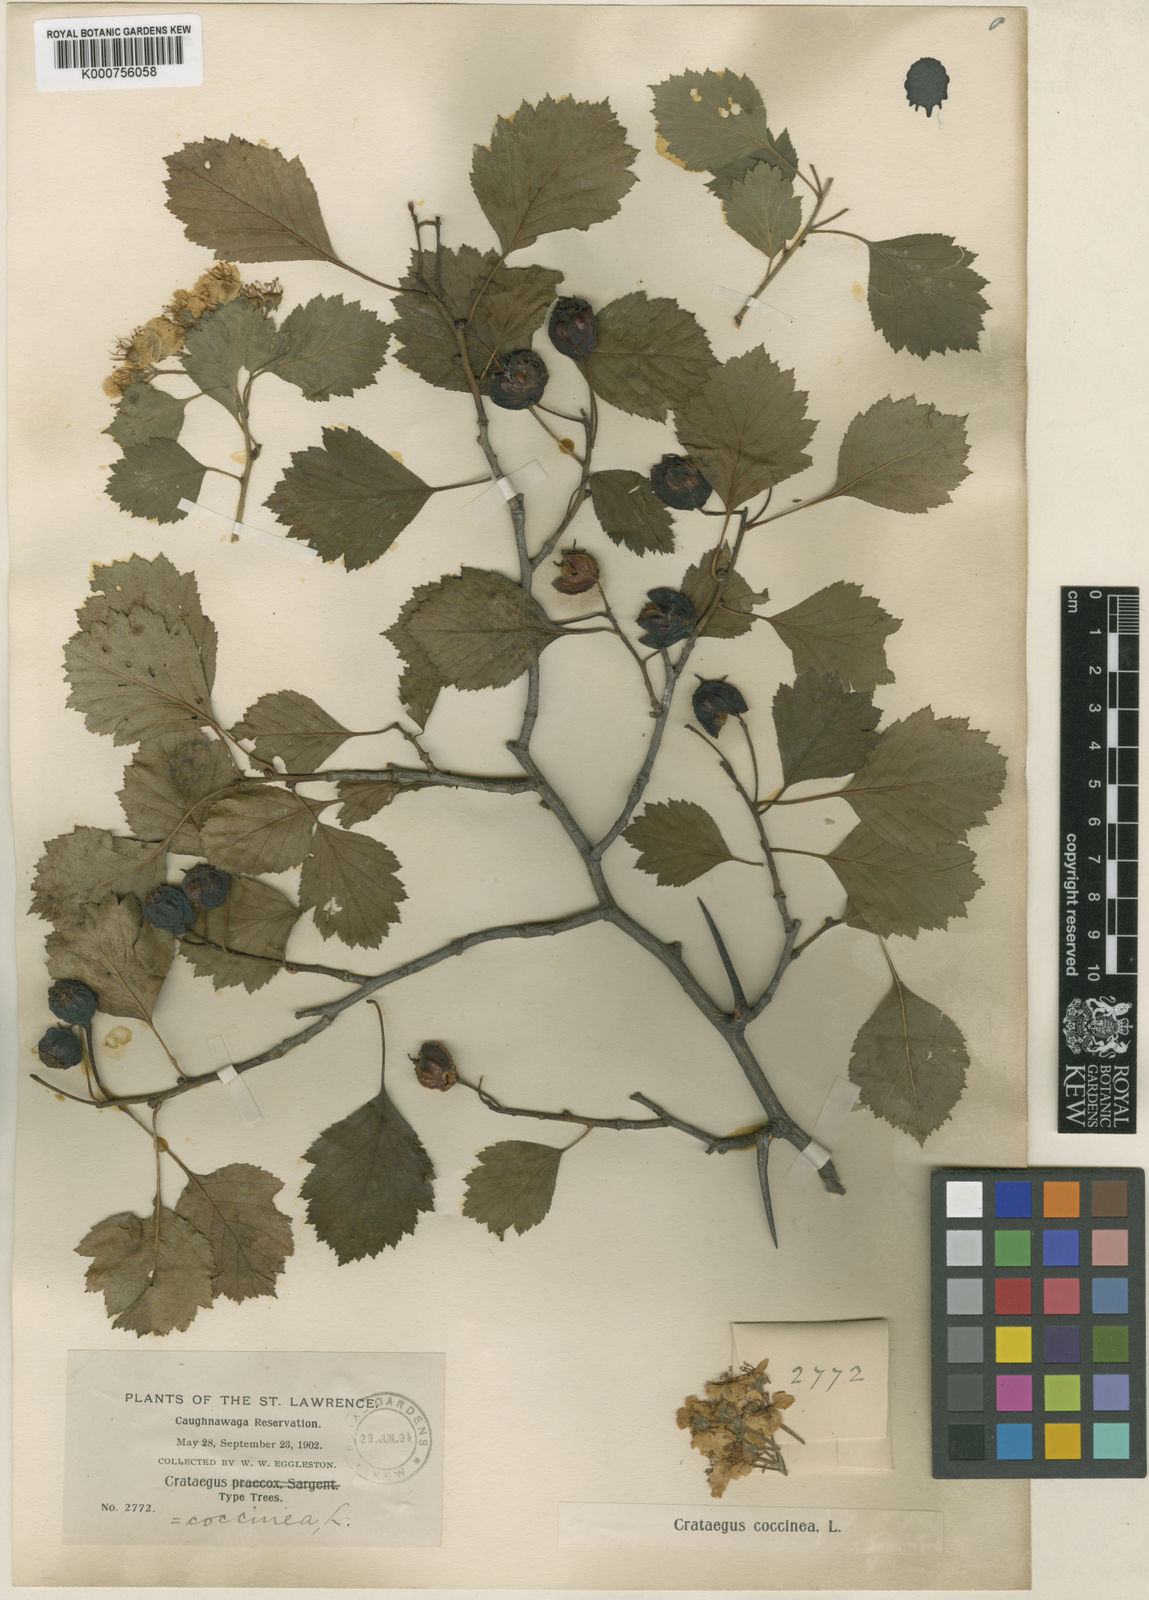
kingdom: Plantae
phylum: Tracheophyta
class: Magnoliopsida
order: Rosales
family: Rosaceae
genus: Crataegus
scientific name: Crataegus chrysocarpa
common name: Fire-berry hawthorn
